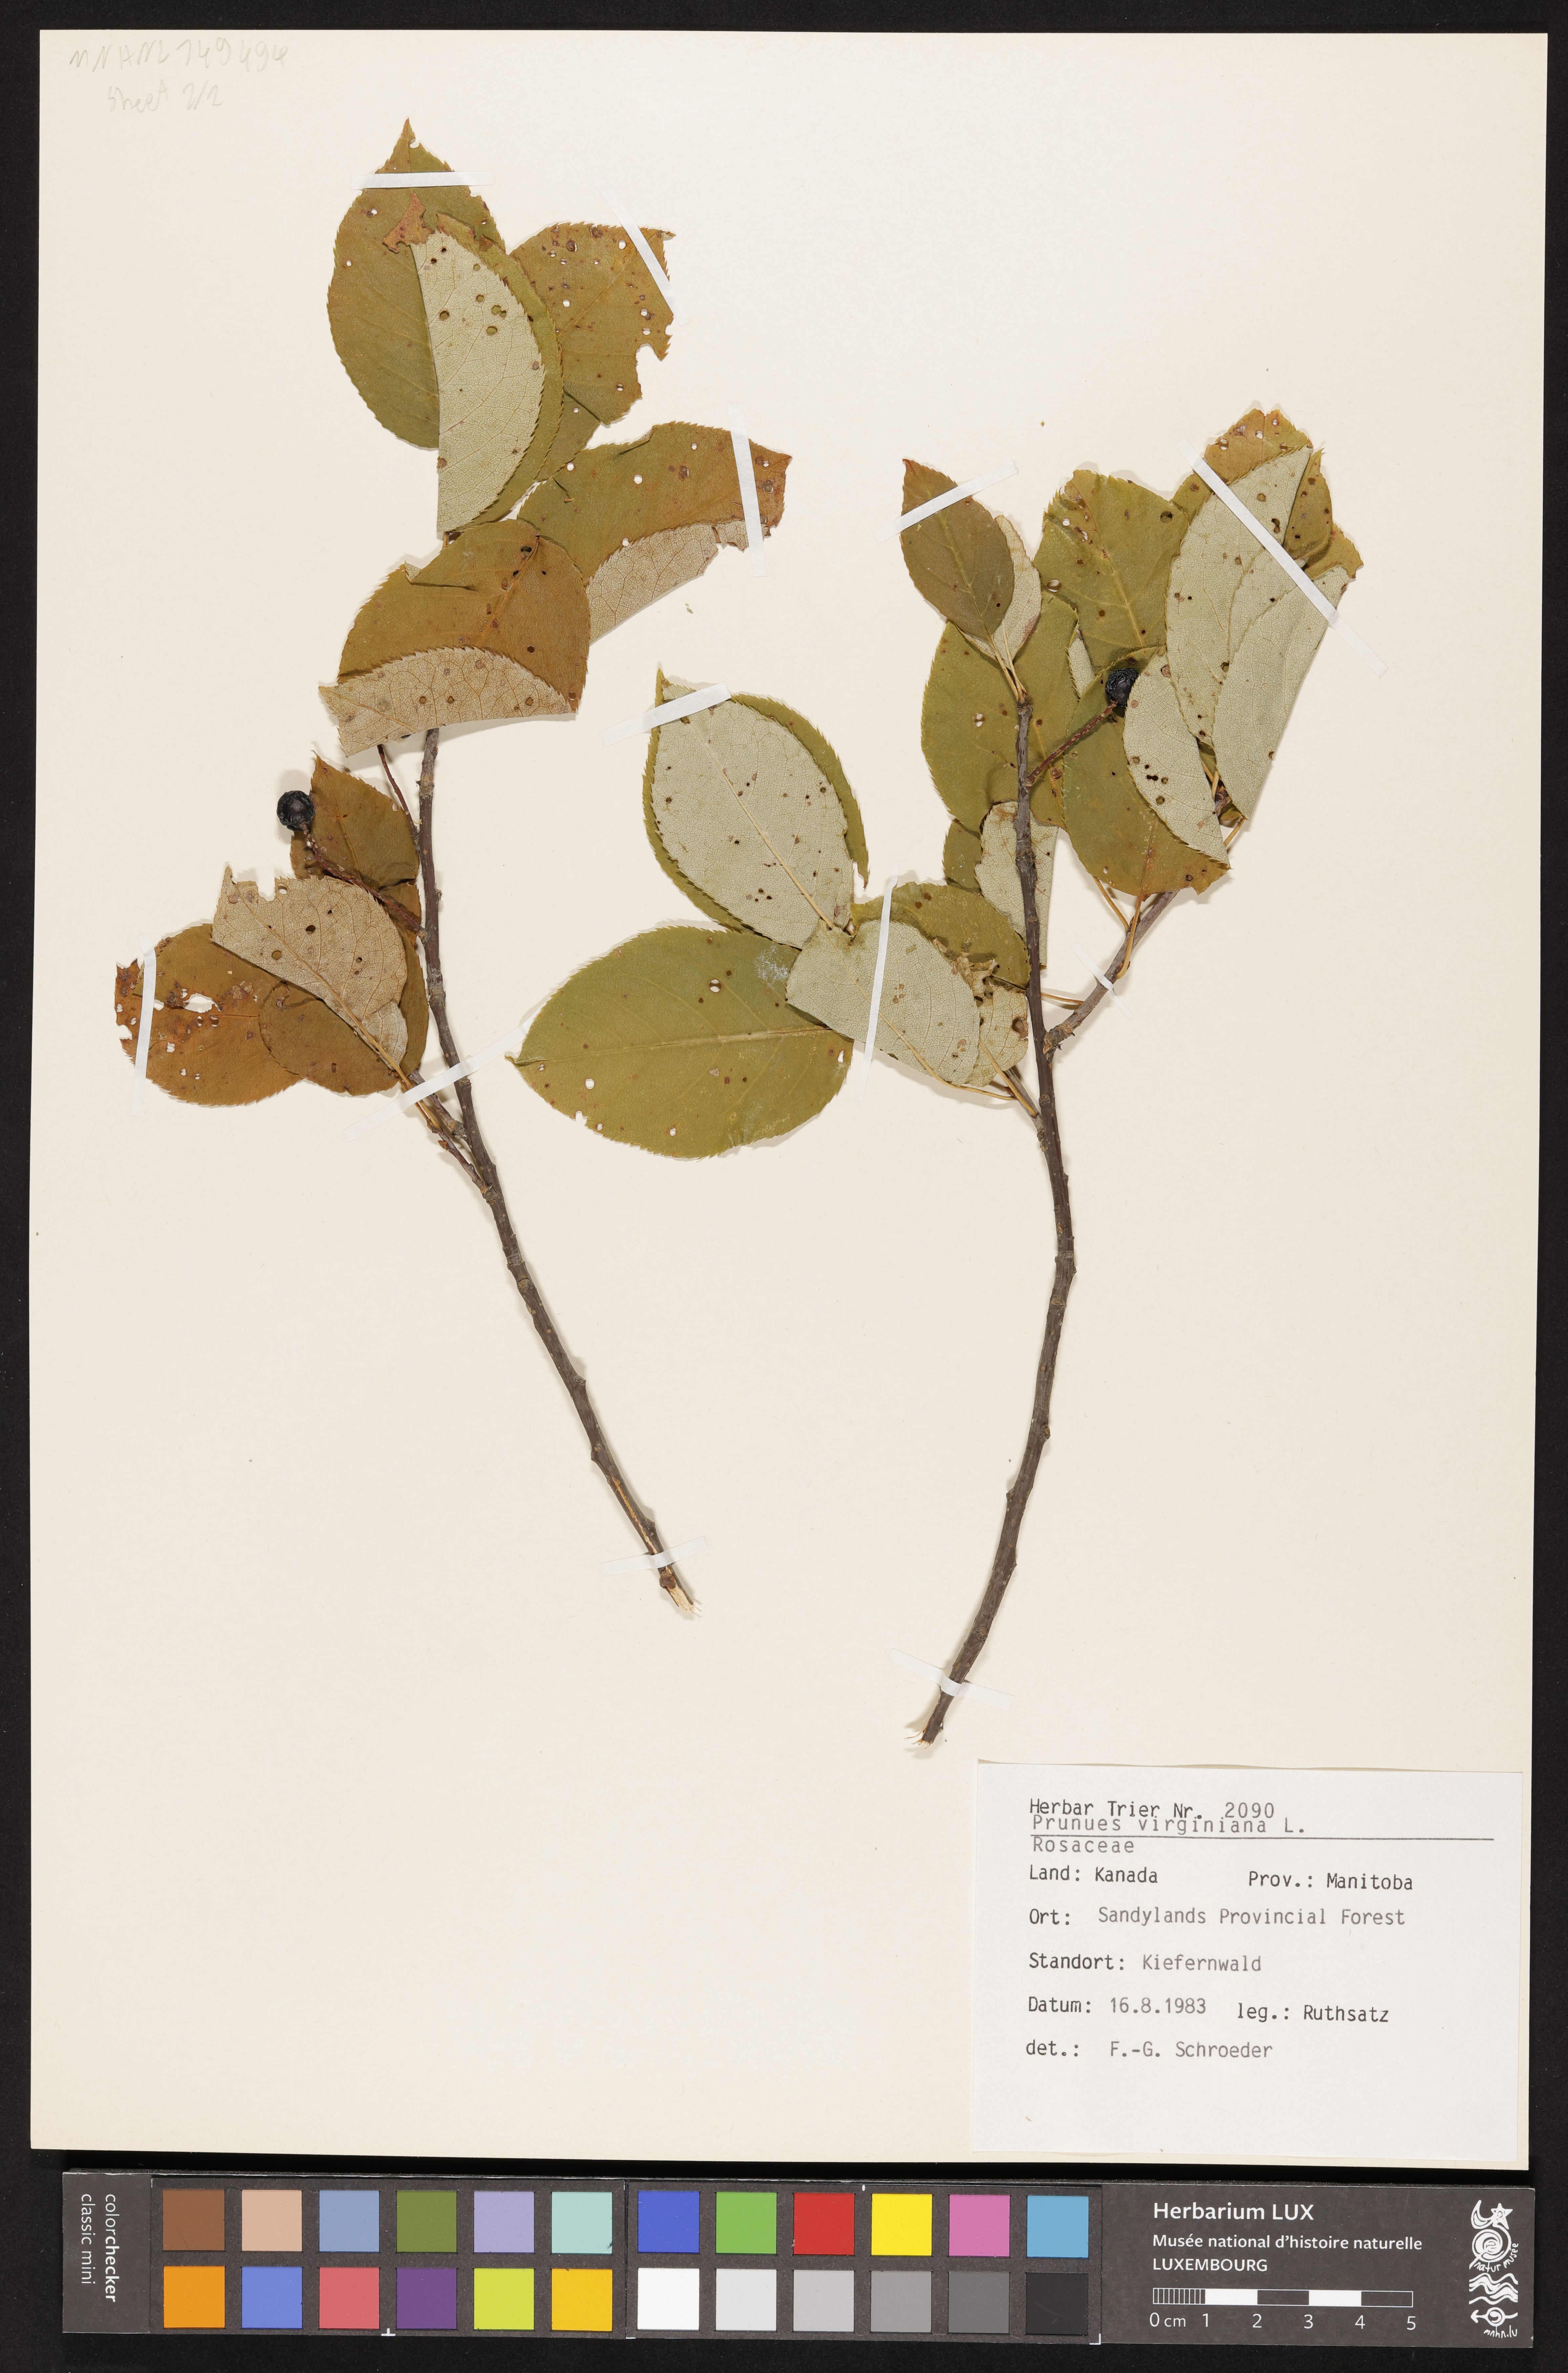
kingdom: Plantae
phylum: Tracheophyta
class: Magnoliopsida
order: Rosales
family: Rosaceae
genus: Prunus
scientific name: Prunus virginiana
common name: Chokecherry
